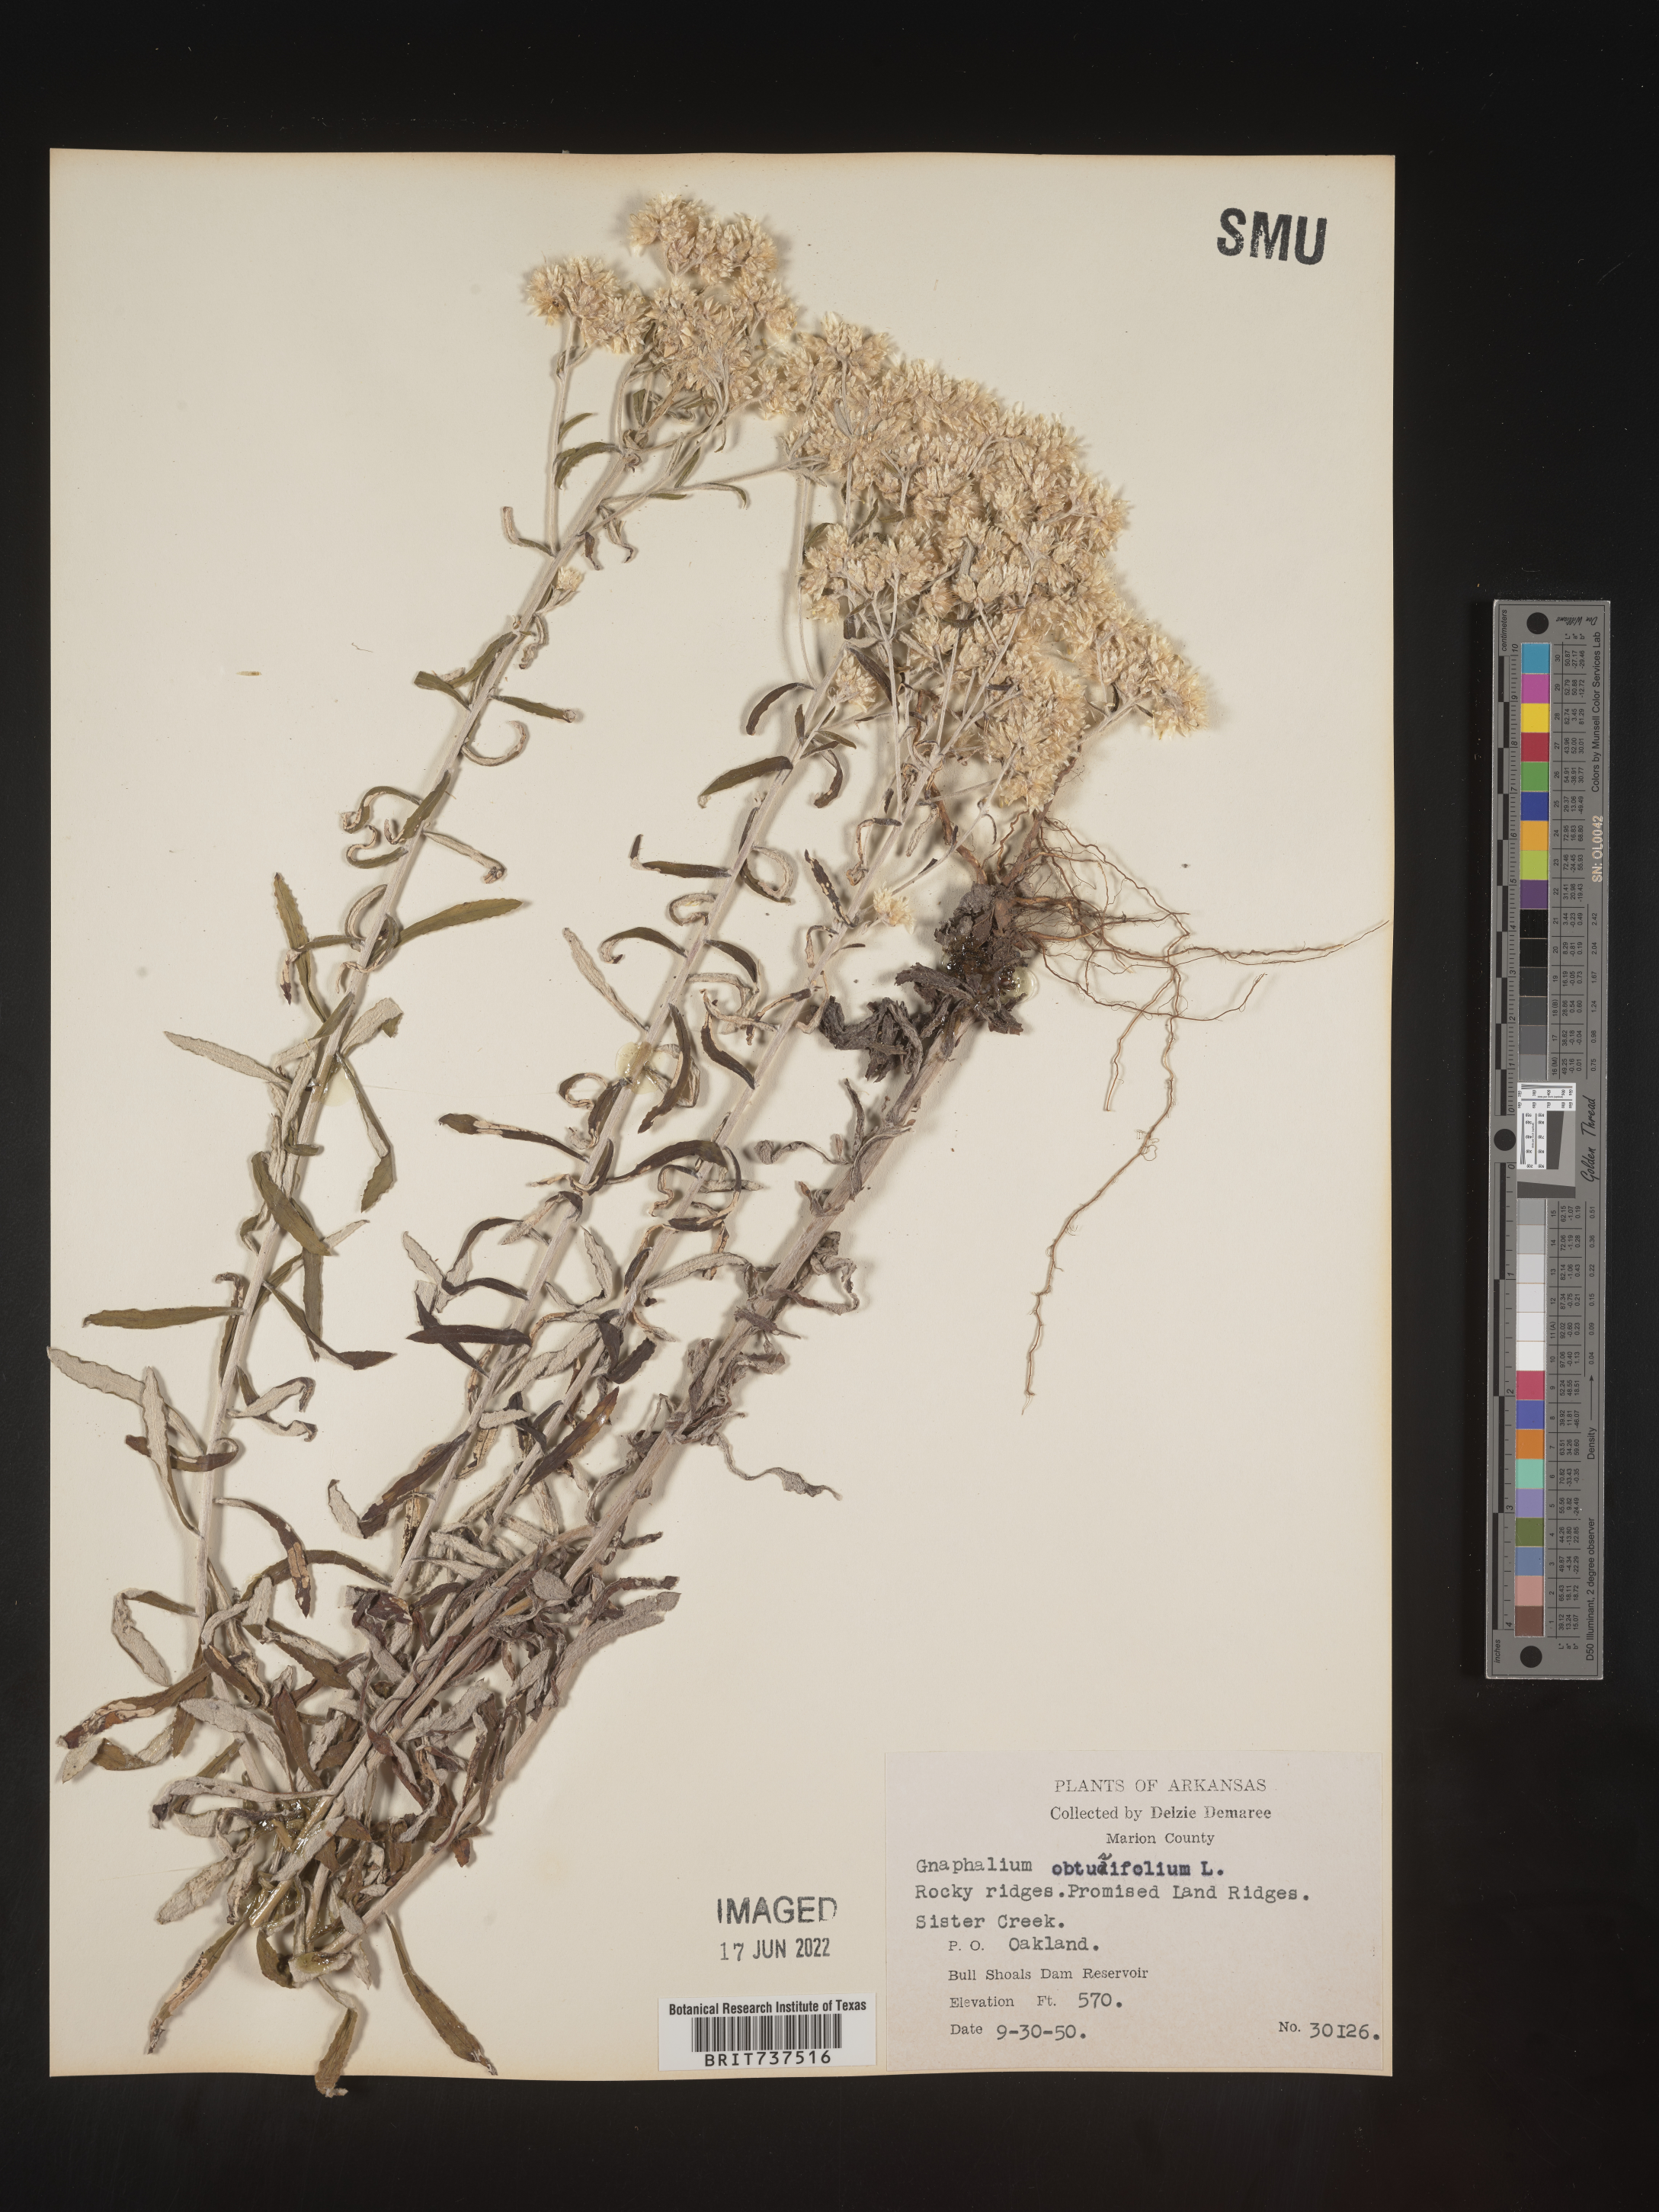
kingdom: Plantae
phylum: Tracheophyta
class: Magnoliopsida
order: Asterales
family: Asteraceae
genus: Pseudognaphalium
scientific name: Pseudognaphalium obtusifolium
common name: Eastern rabbit-tobacco
